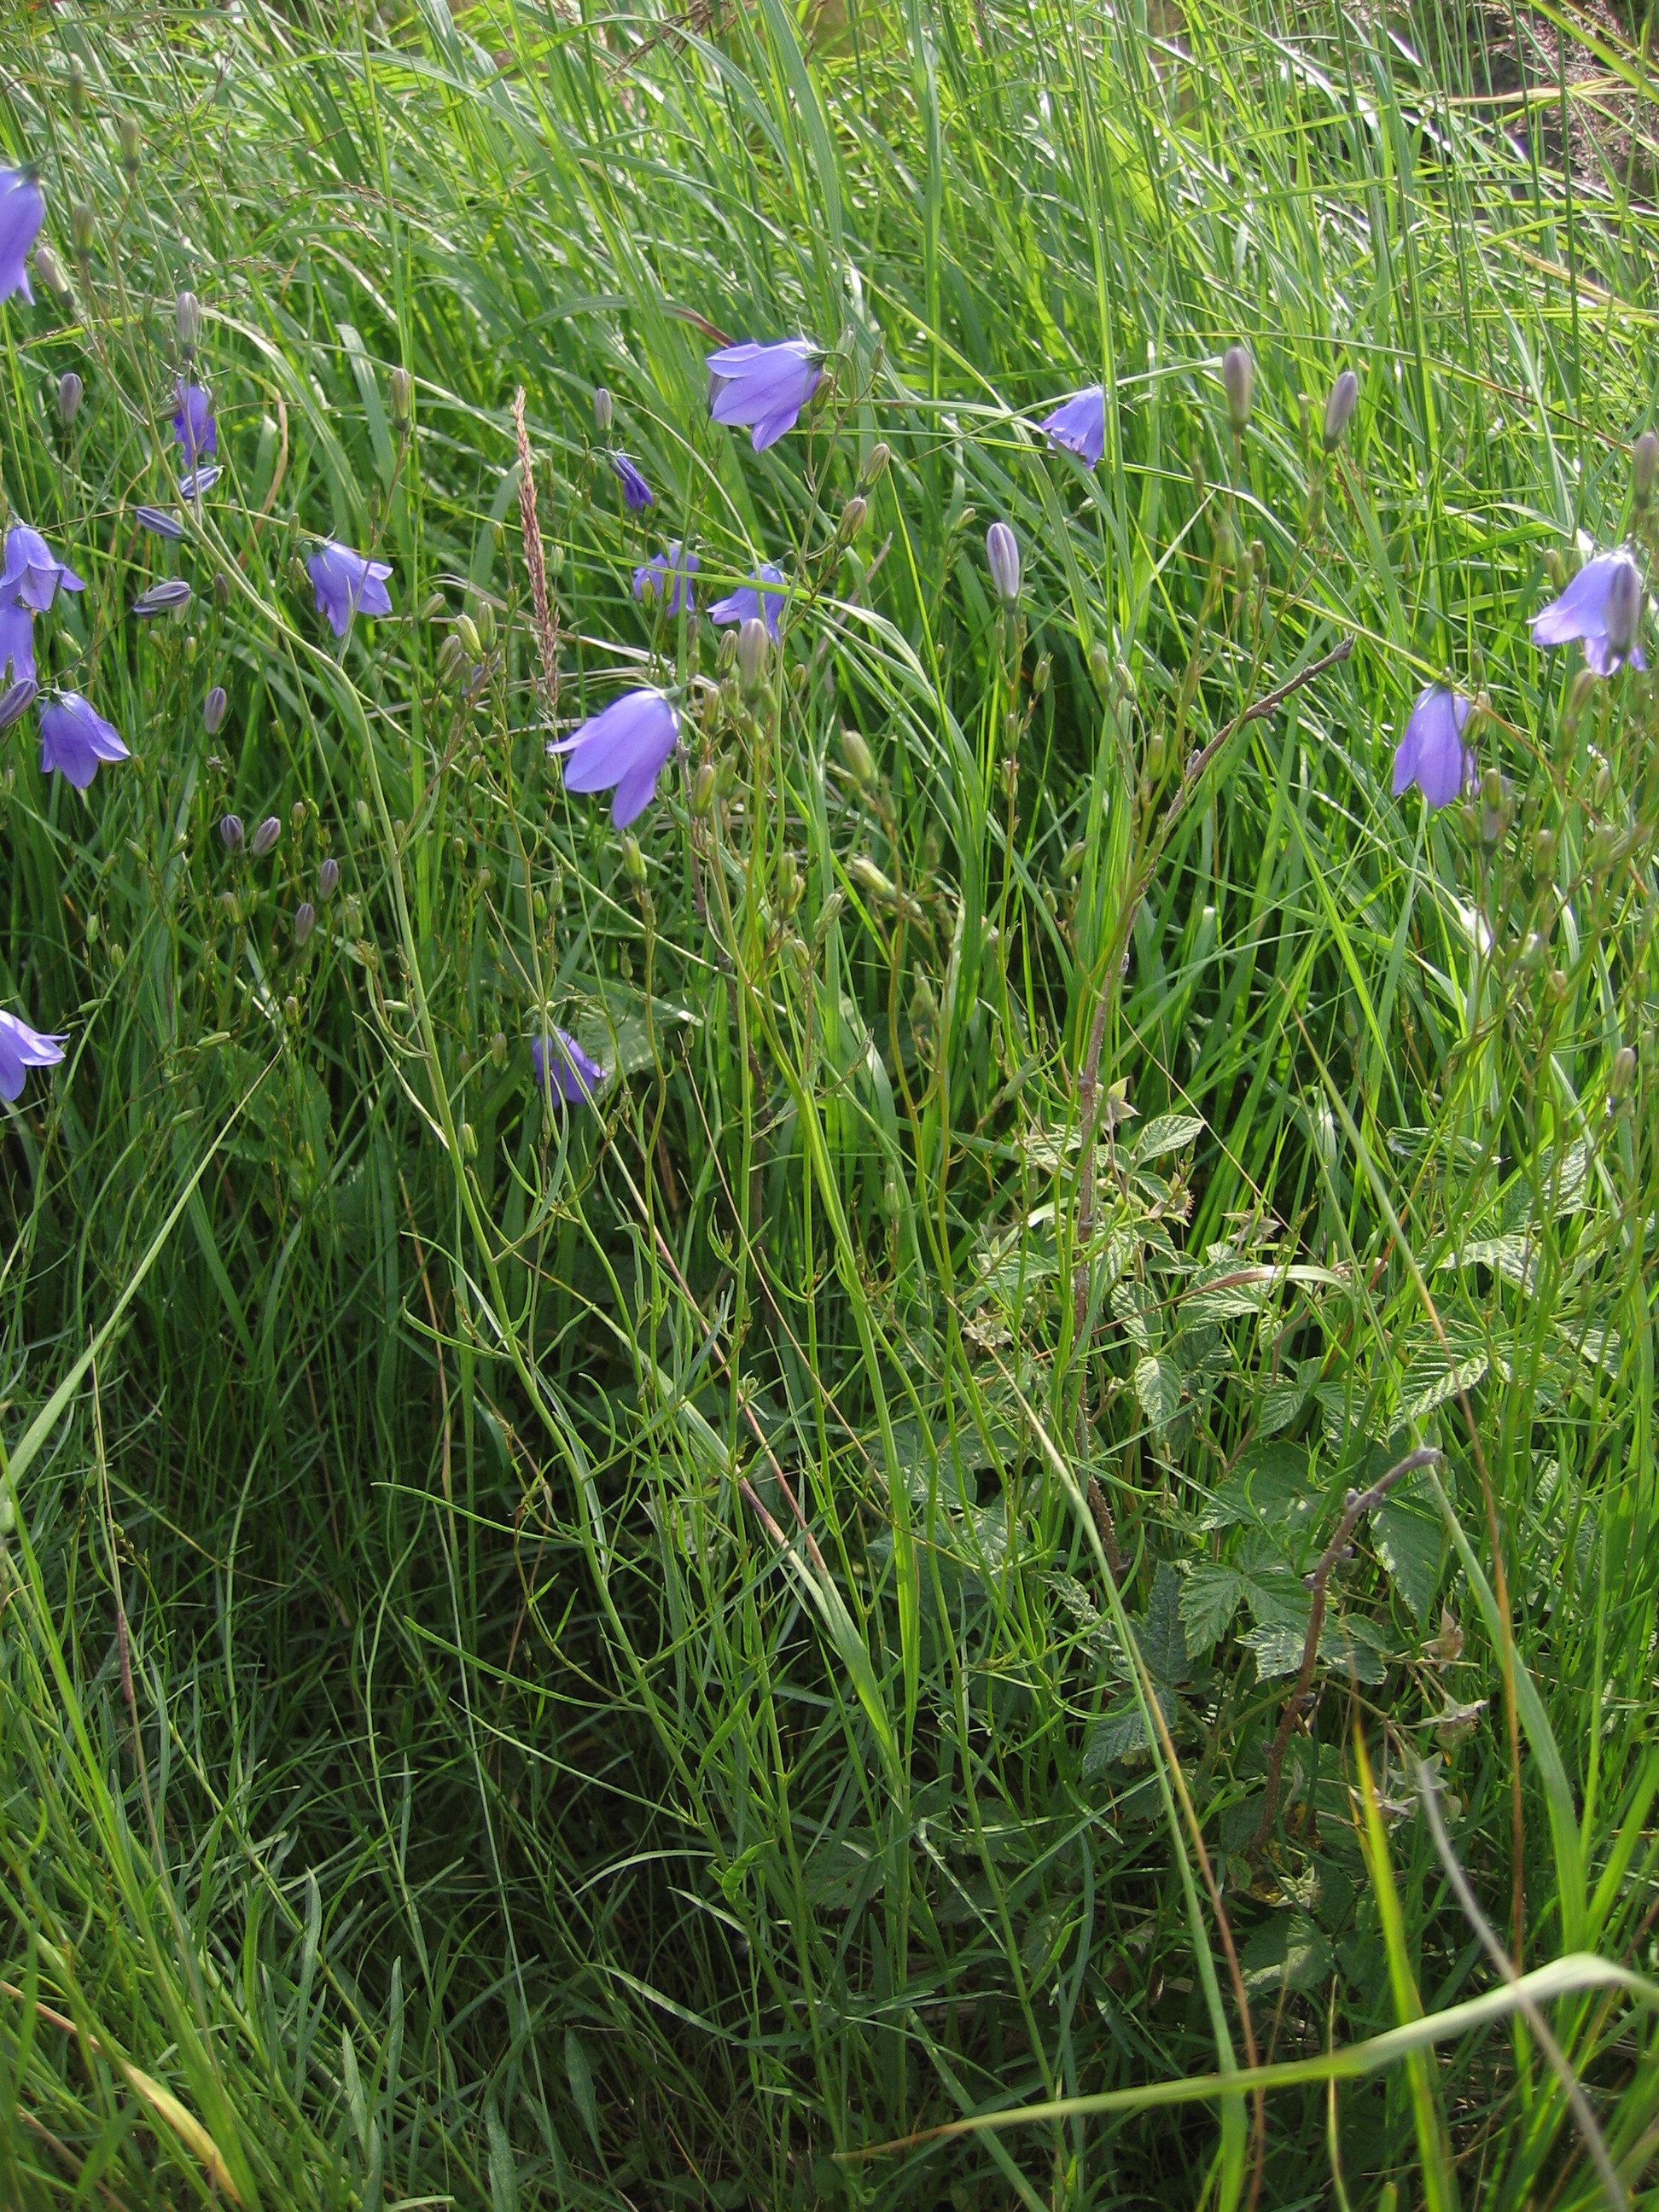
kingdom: Plantae
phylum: Tracheophyta
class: Magnoliopsida
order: Asterales
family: Campanulaceae
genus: Campanula
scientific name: Campanula rotundifolia
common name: Harebell
